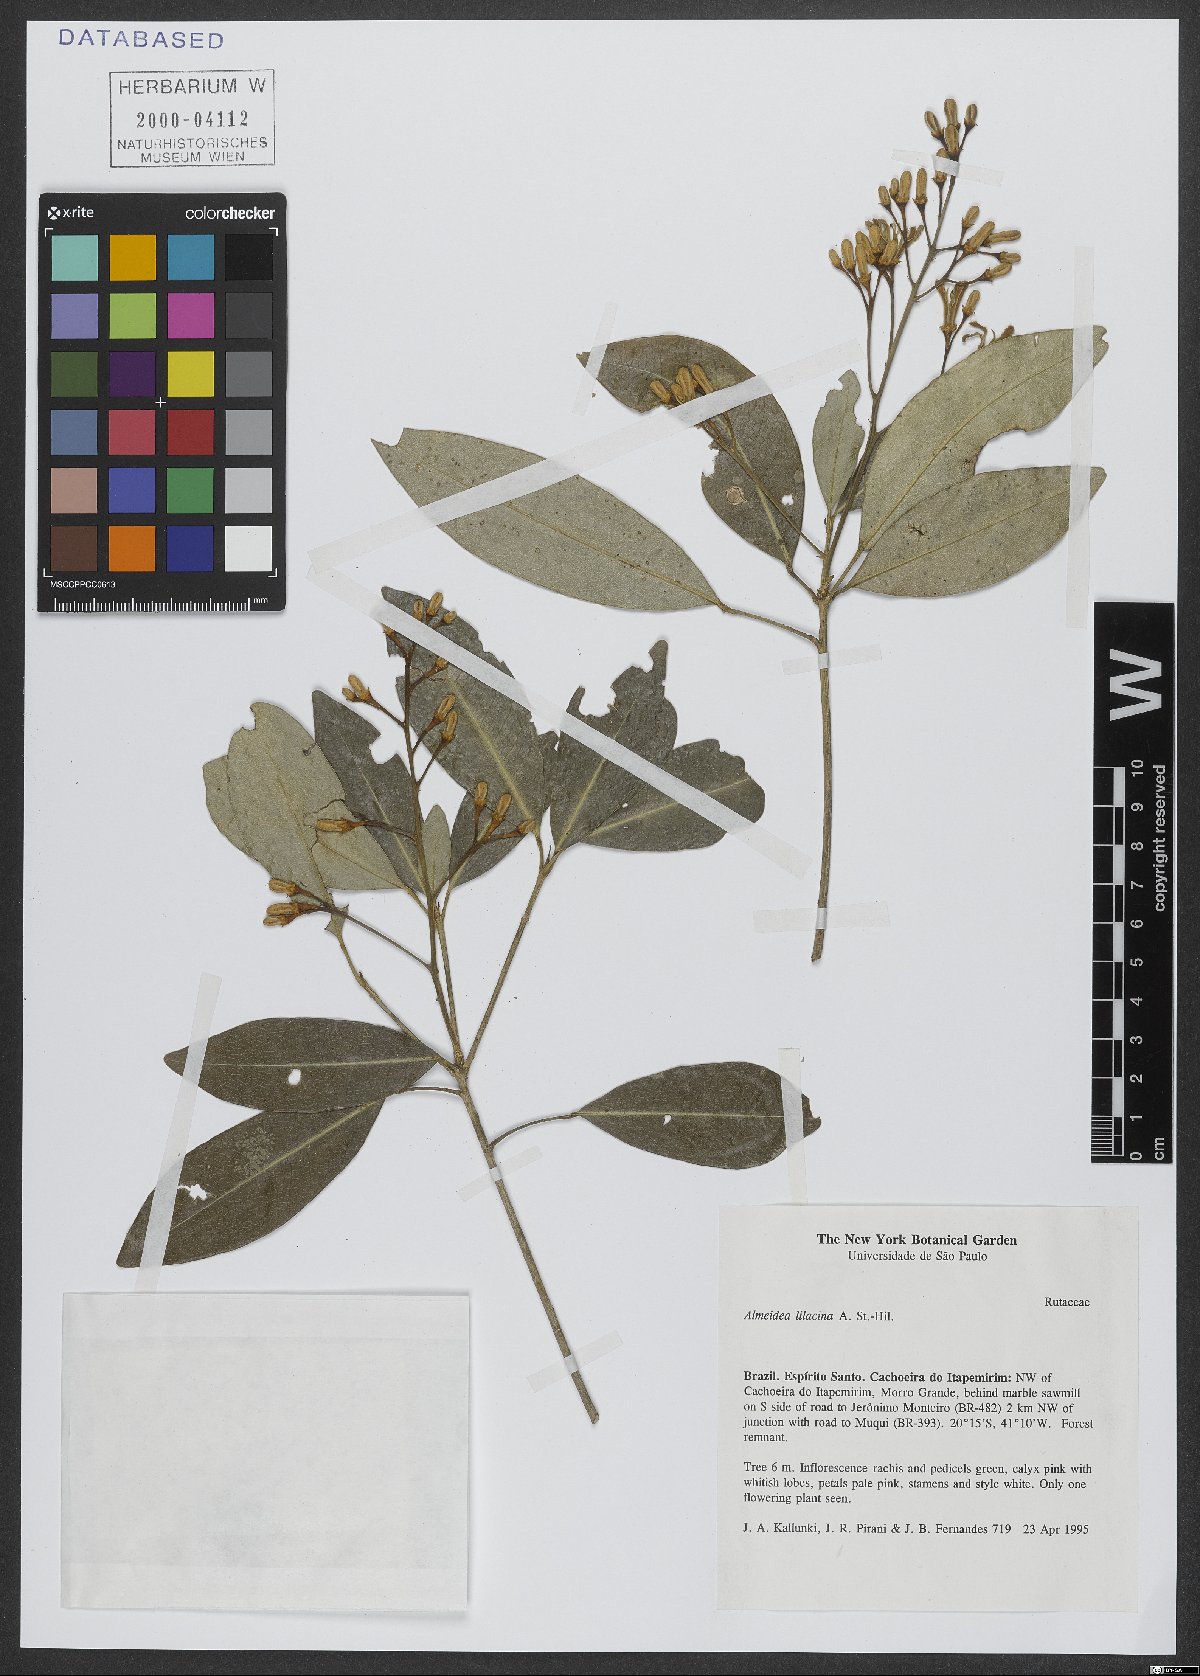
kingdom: Plantae
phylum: Tracheophyta
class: Magnoliopsida
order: Sapindales
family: Rutaceae
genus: Conchocarpus
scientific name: Conchocarpus lilacinus
